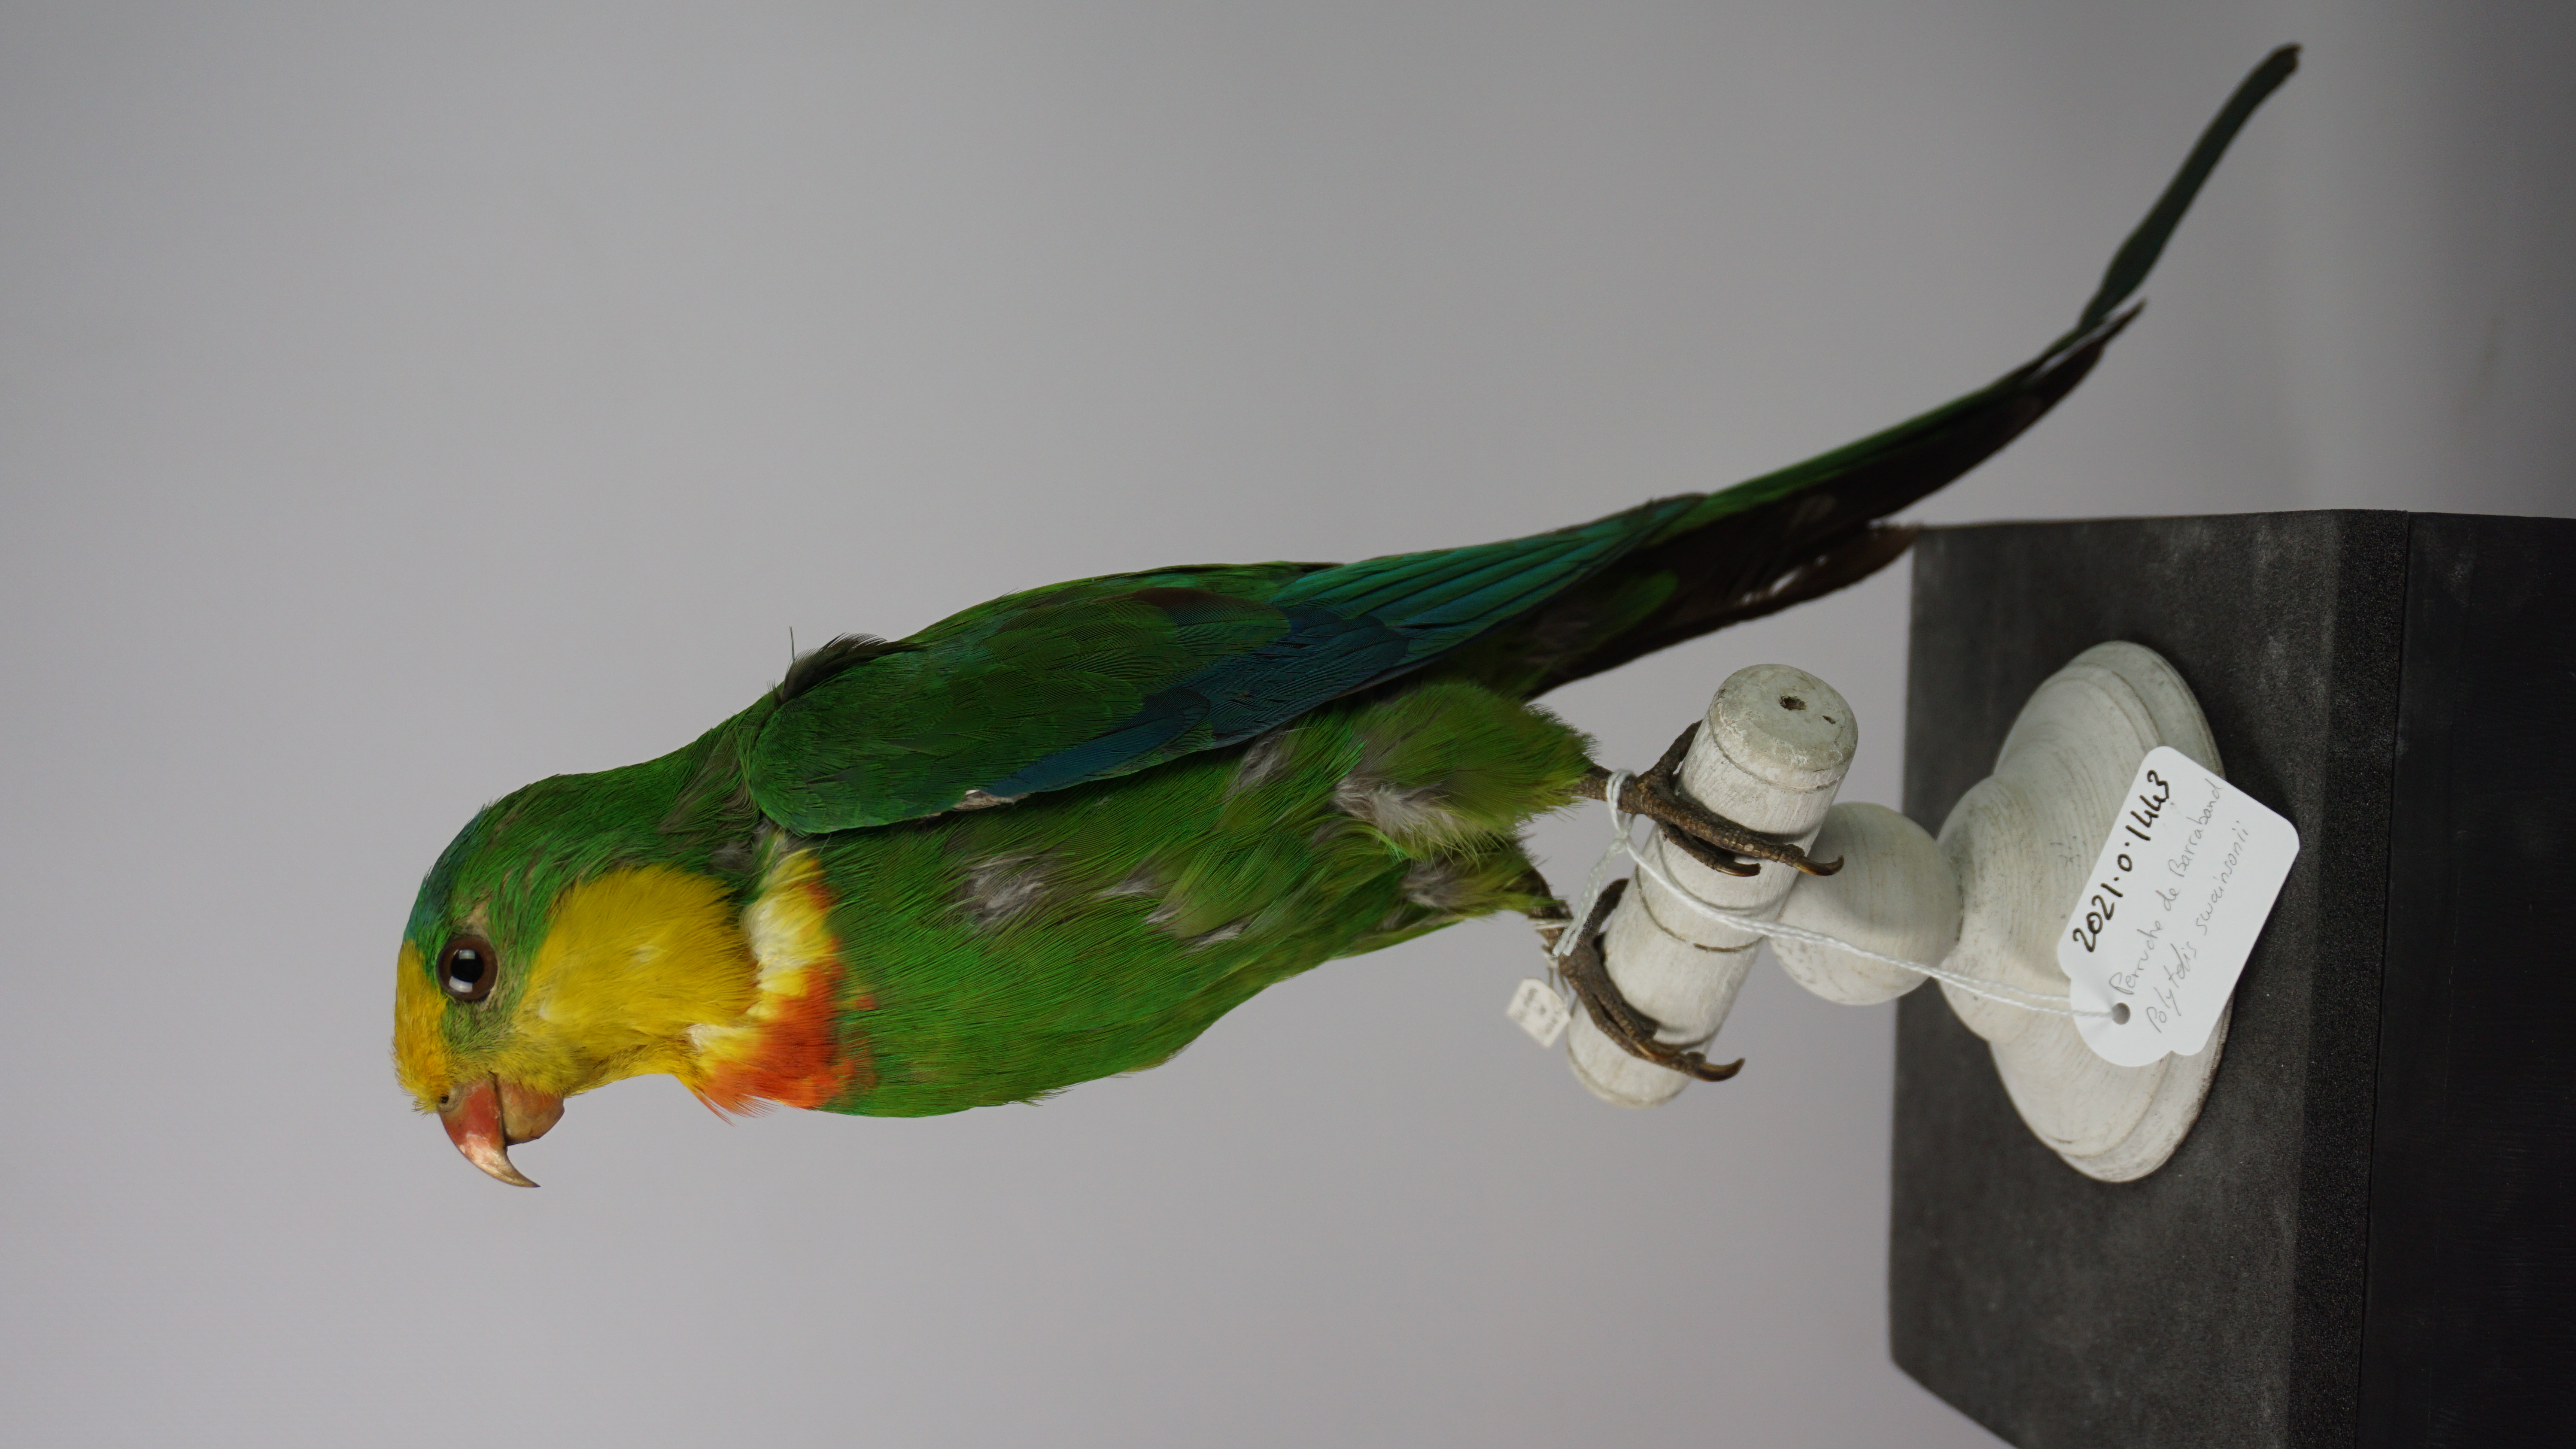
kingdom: Animalia
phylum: Chordata
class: Aves
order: Psittaciformes
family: Psittacidae
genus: Polytelis
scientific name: Polytelis swainsonii
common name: Superb parrot
